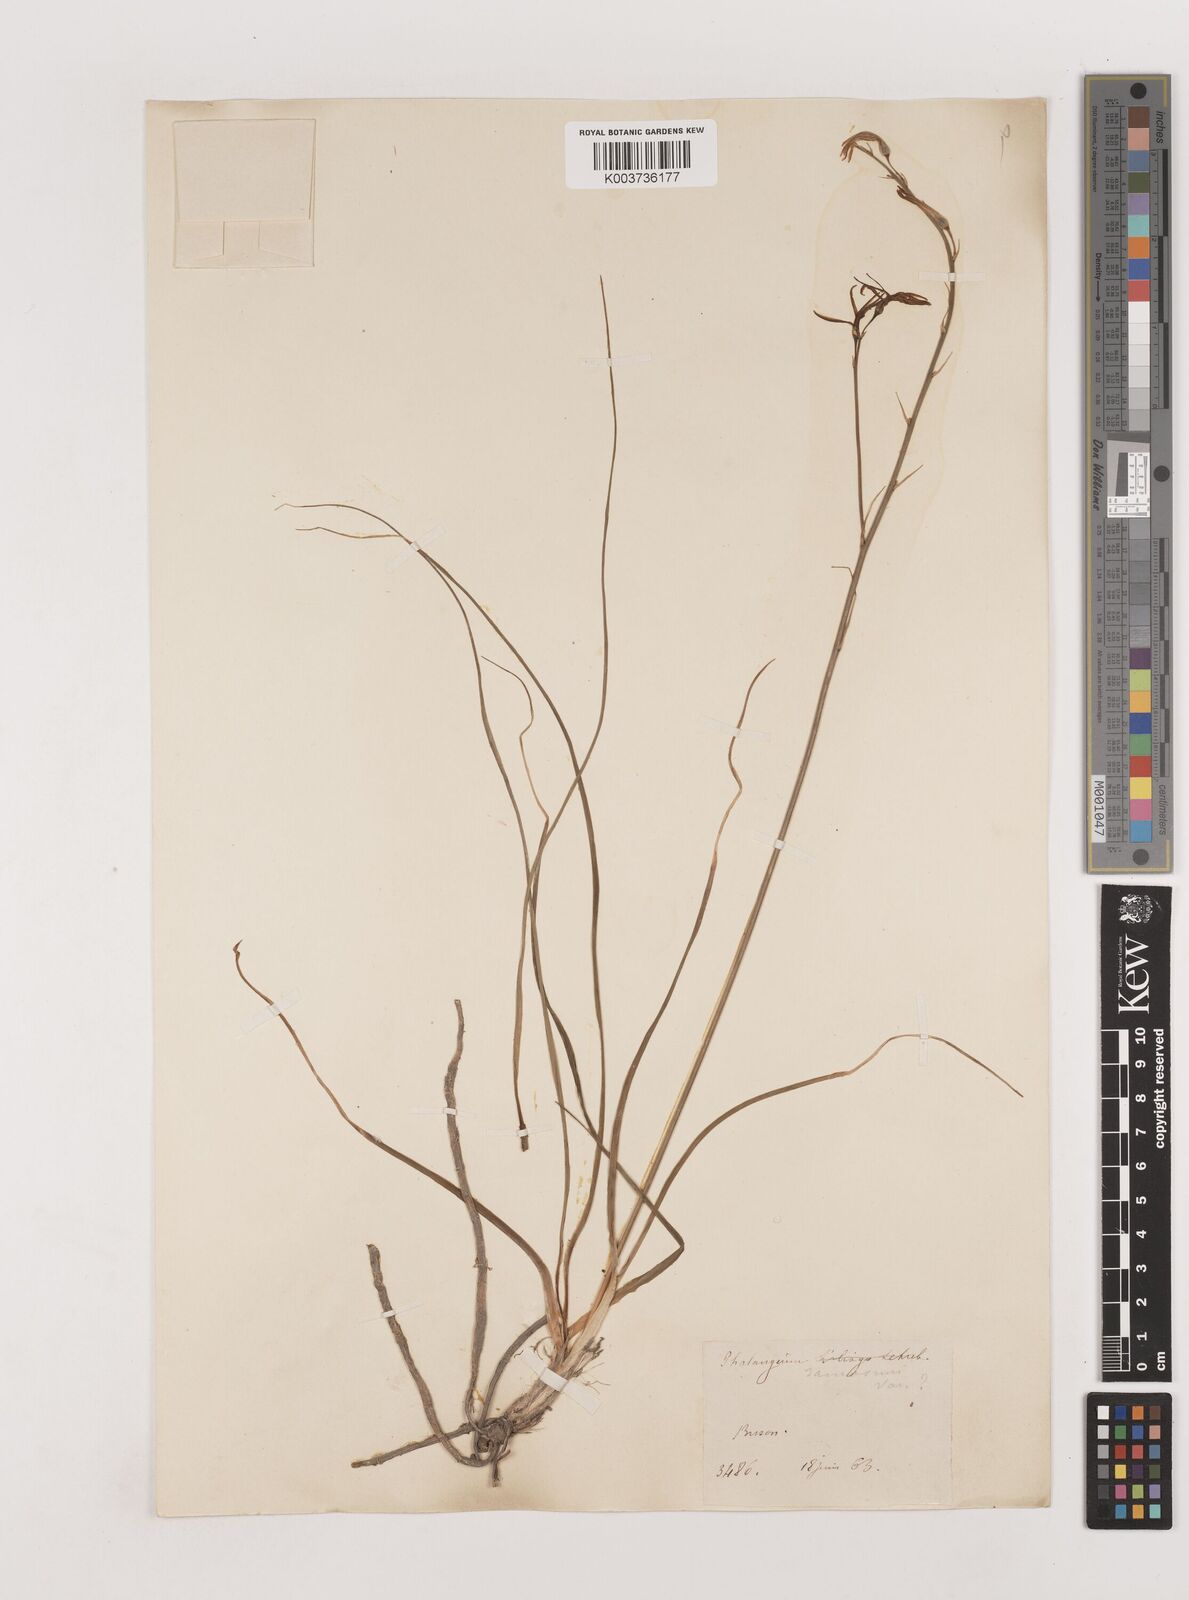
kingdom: Plantae
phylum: Tracheophyta
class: Liliopsida
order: Asparagales
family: Asparagaceae
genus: Anthericum
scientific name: Anthericum ramosum
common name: Branched st. bernard's-lily
